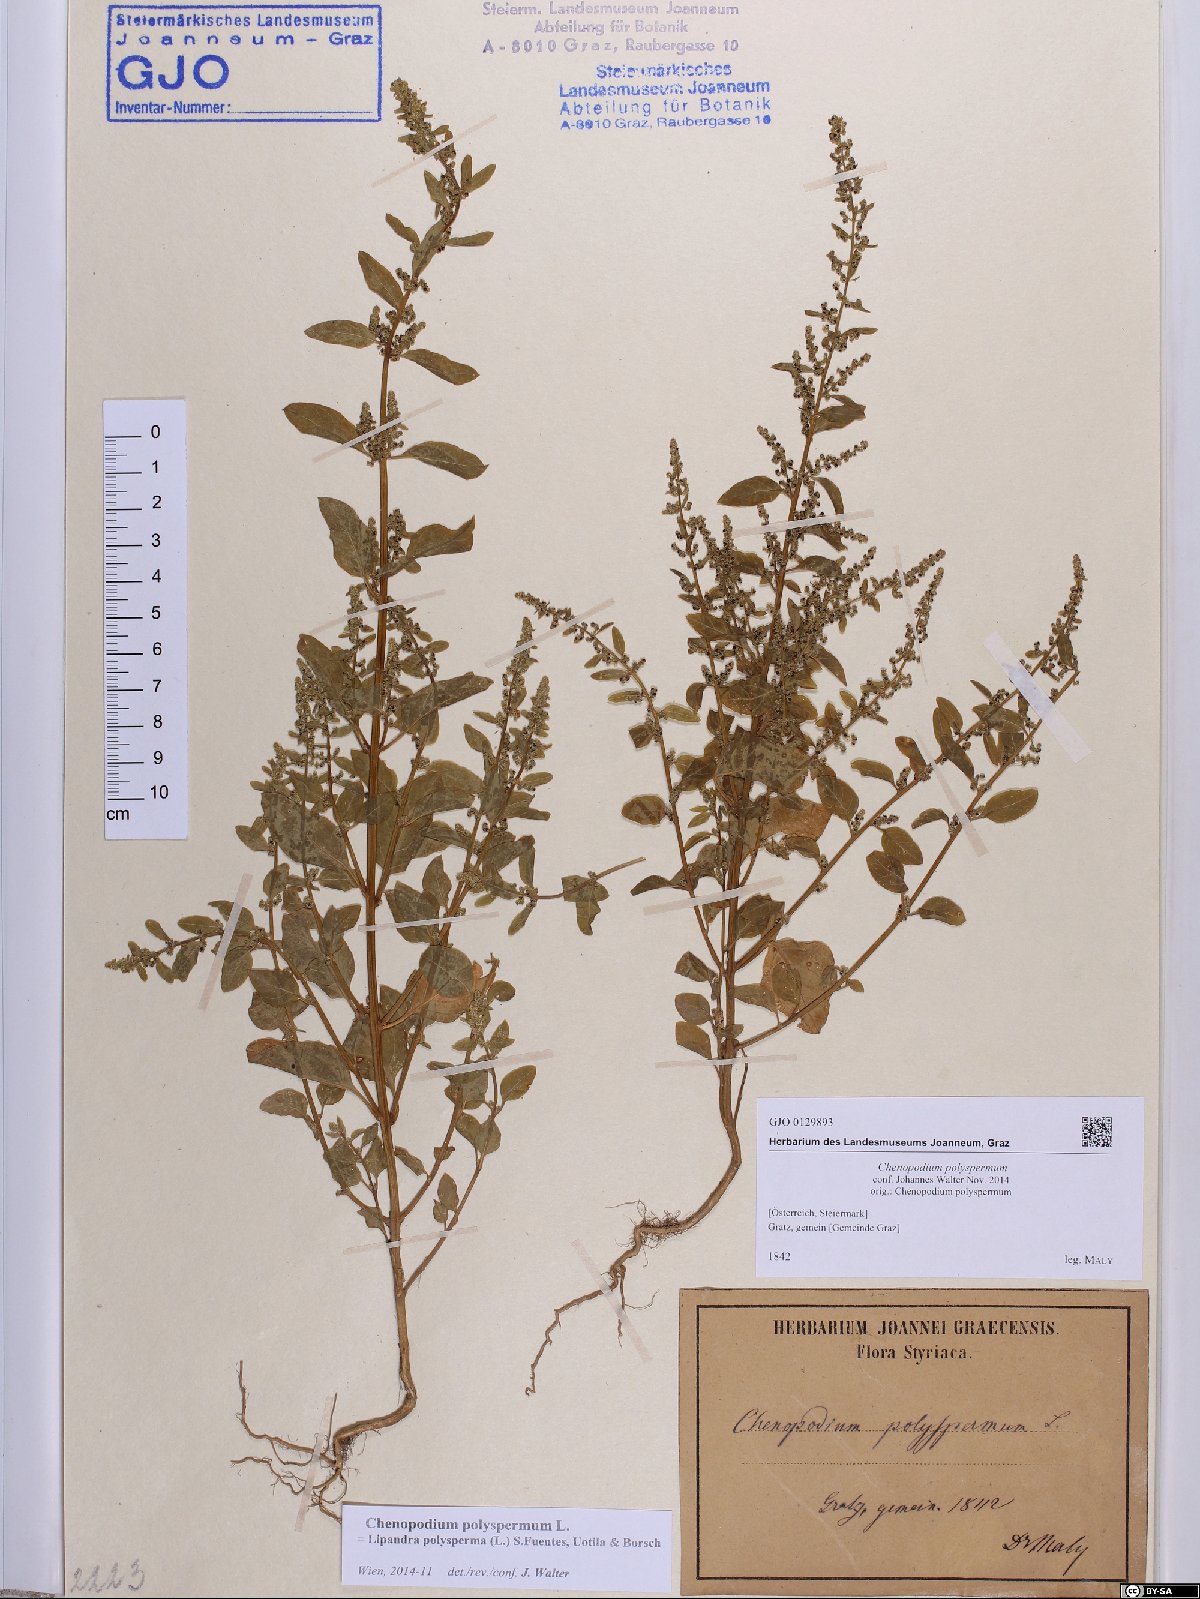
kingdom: Plantae
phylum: Tracheophyta
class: Magnoliopsida
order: Caryophyllales
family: Amaranthaceae
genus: Lipandra
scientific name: Lipandra polysperma
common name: Many-seed goosefoot
